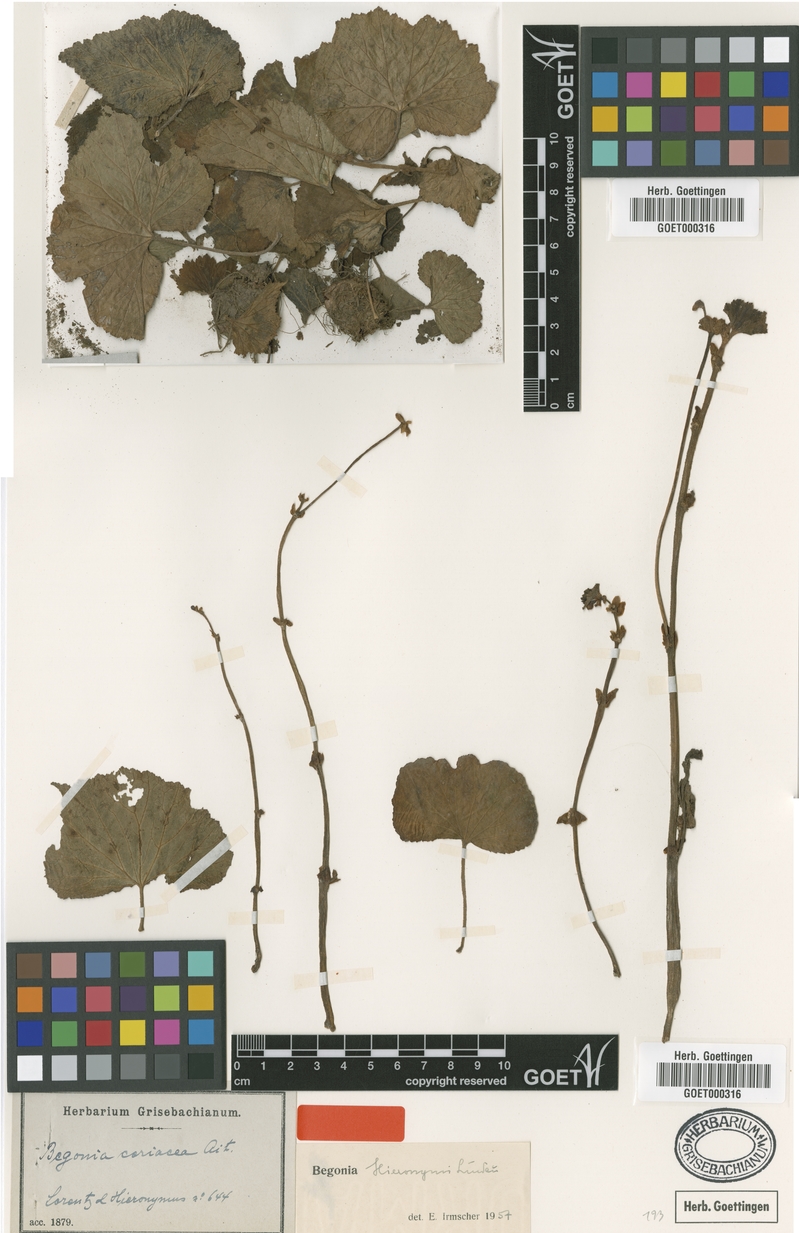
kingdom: Plantae
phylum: Tracheophyta
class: Magnoliopsida
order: Cucurbitales
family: Begoniaceae
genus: Begonia
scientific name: Begonia micranthera
